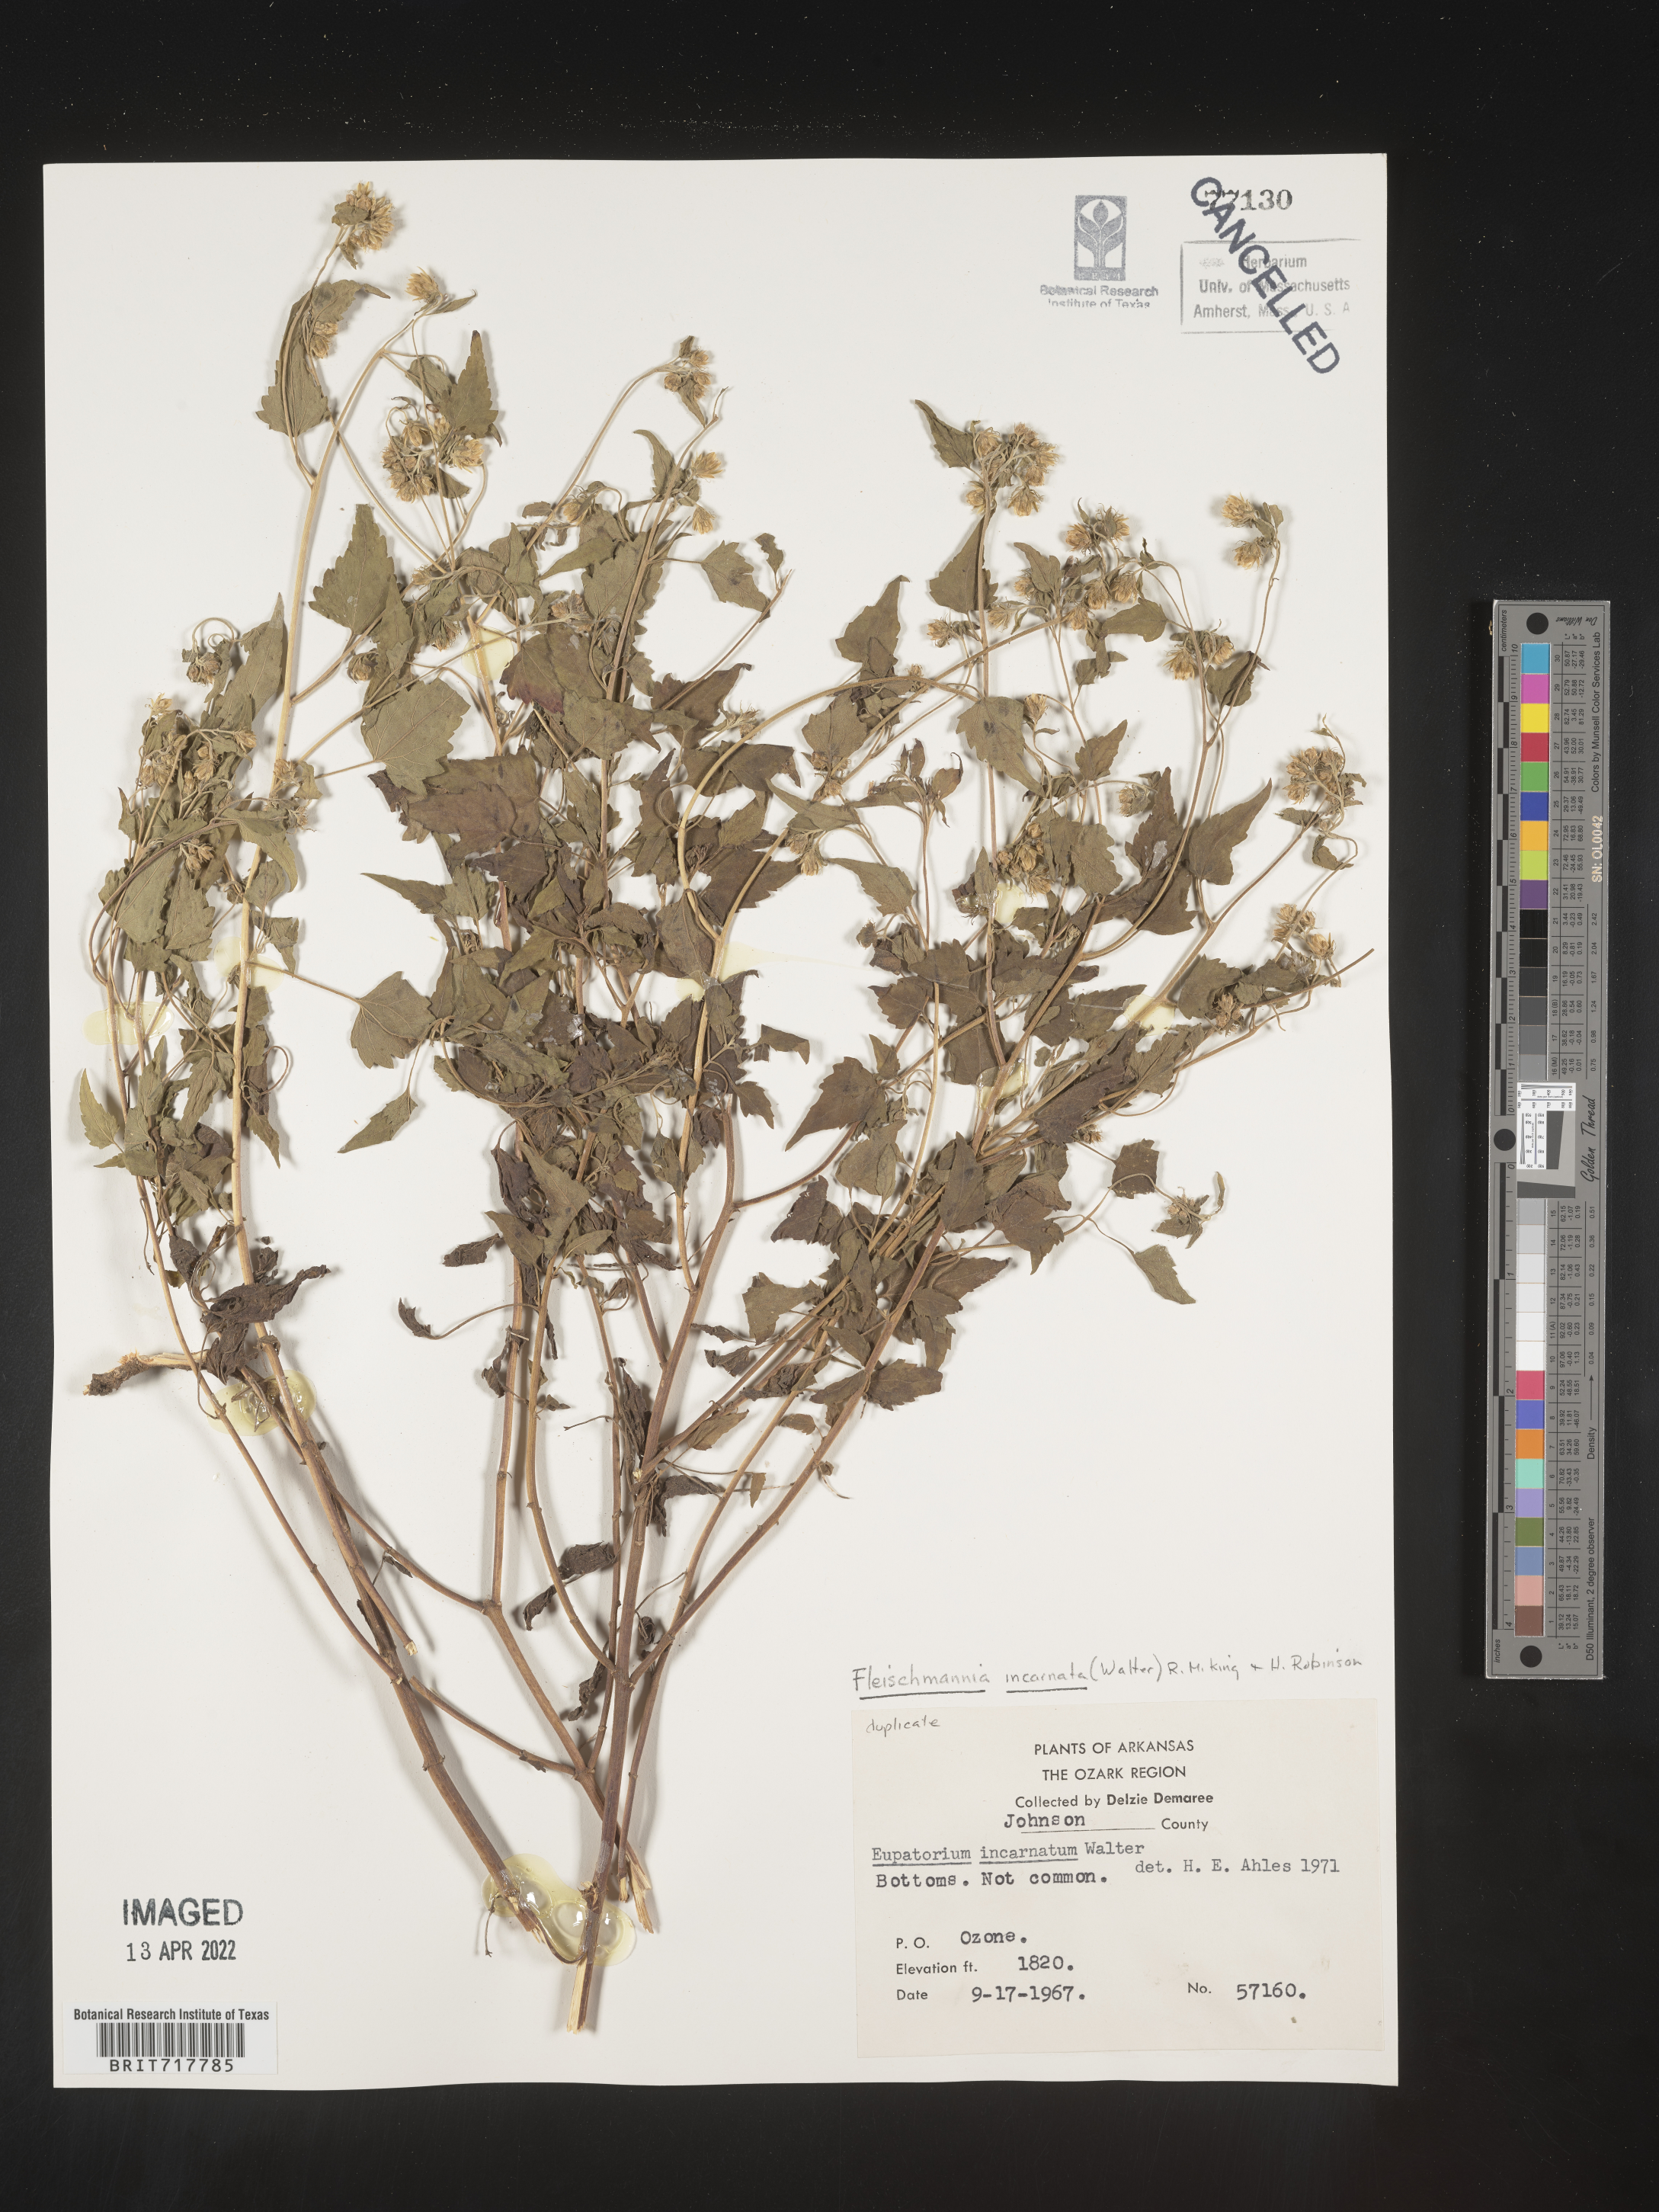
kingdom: Plantae
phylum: Tracheophyta
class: Magnoliopsida
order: Asterales
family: Asteraceae
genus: Fleischmannia
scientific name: Fleischmannia incarnata
